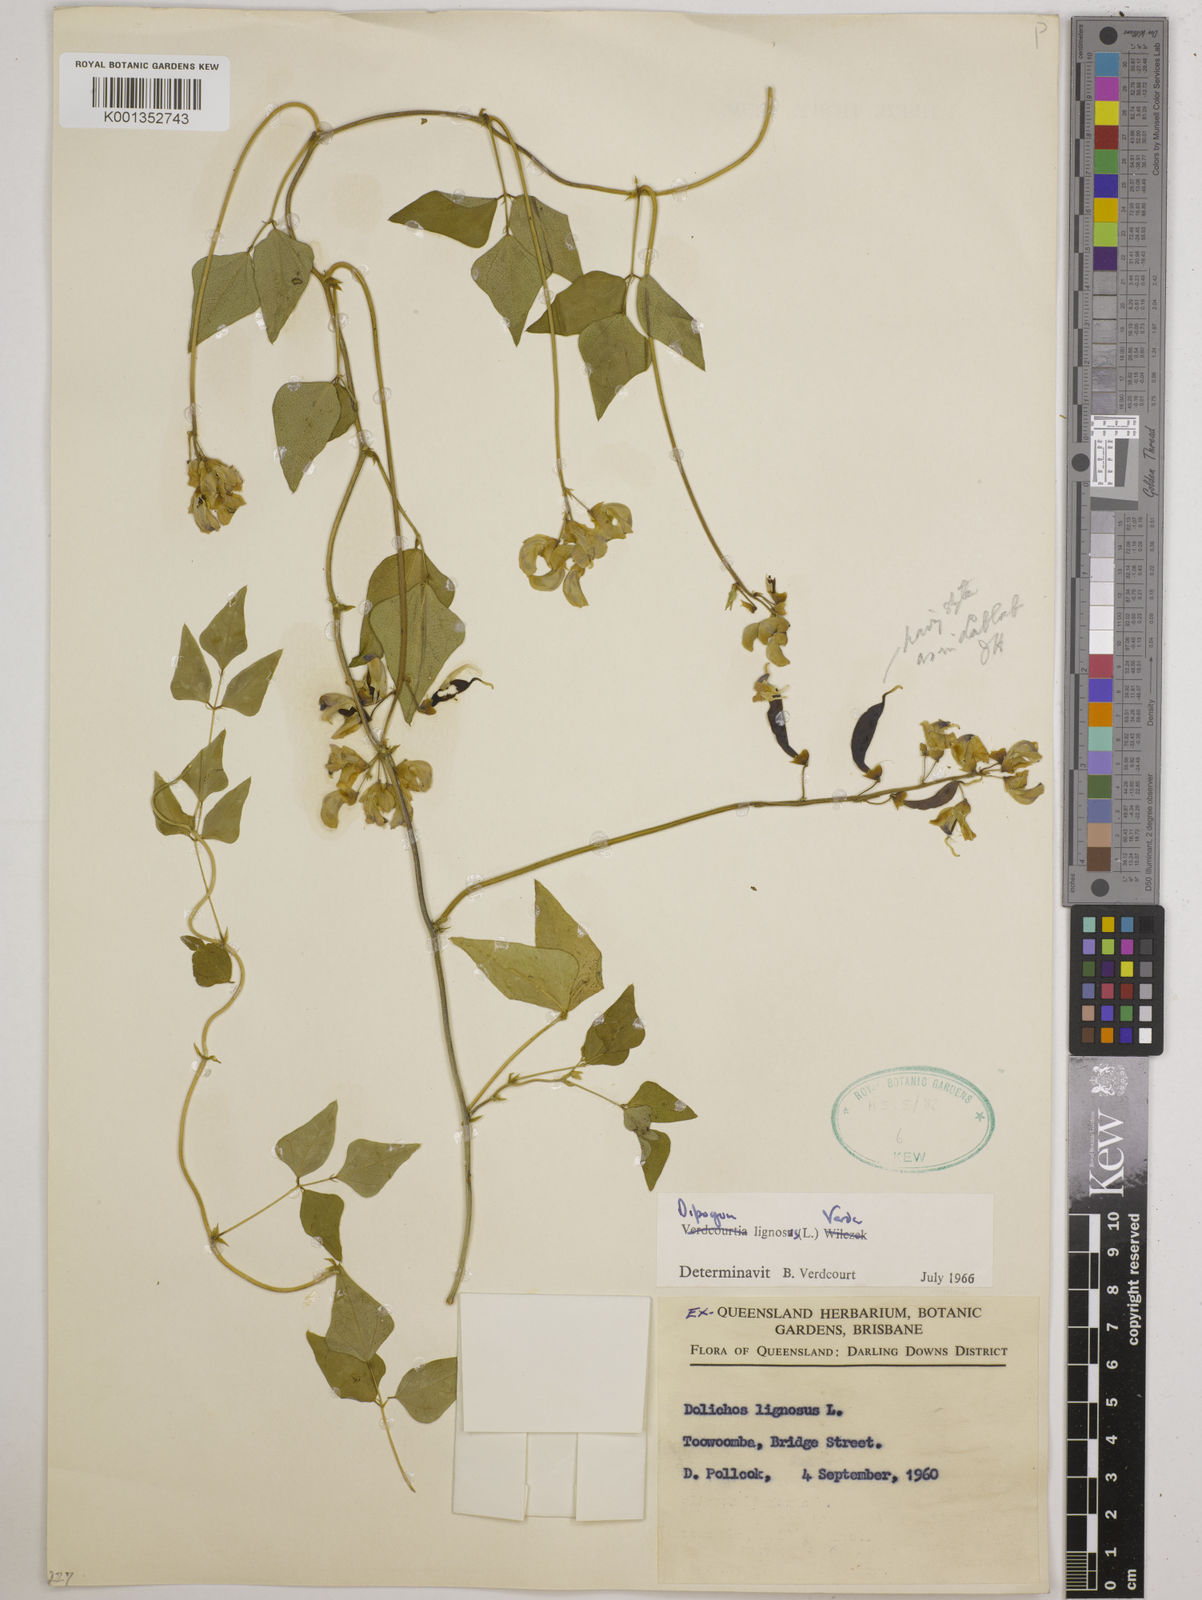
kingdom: Plantae
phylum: Tracheophyta
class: Magnoliopsida
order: Fabales
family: Fabaceae
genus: Dipogon
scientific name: Dipogon lignosus
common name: Okie bean
